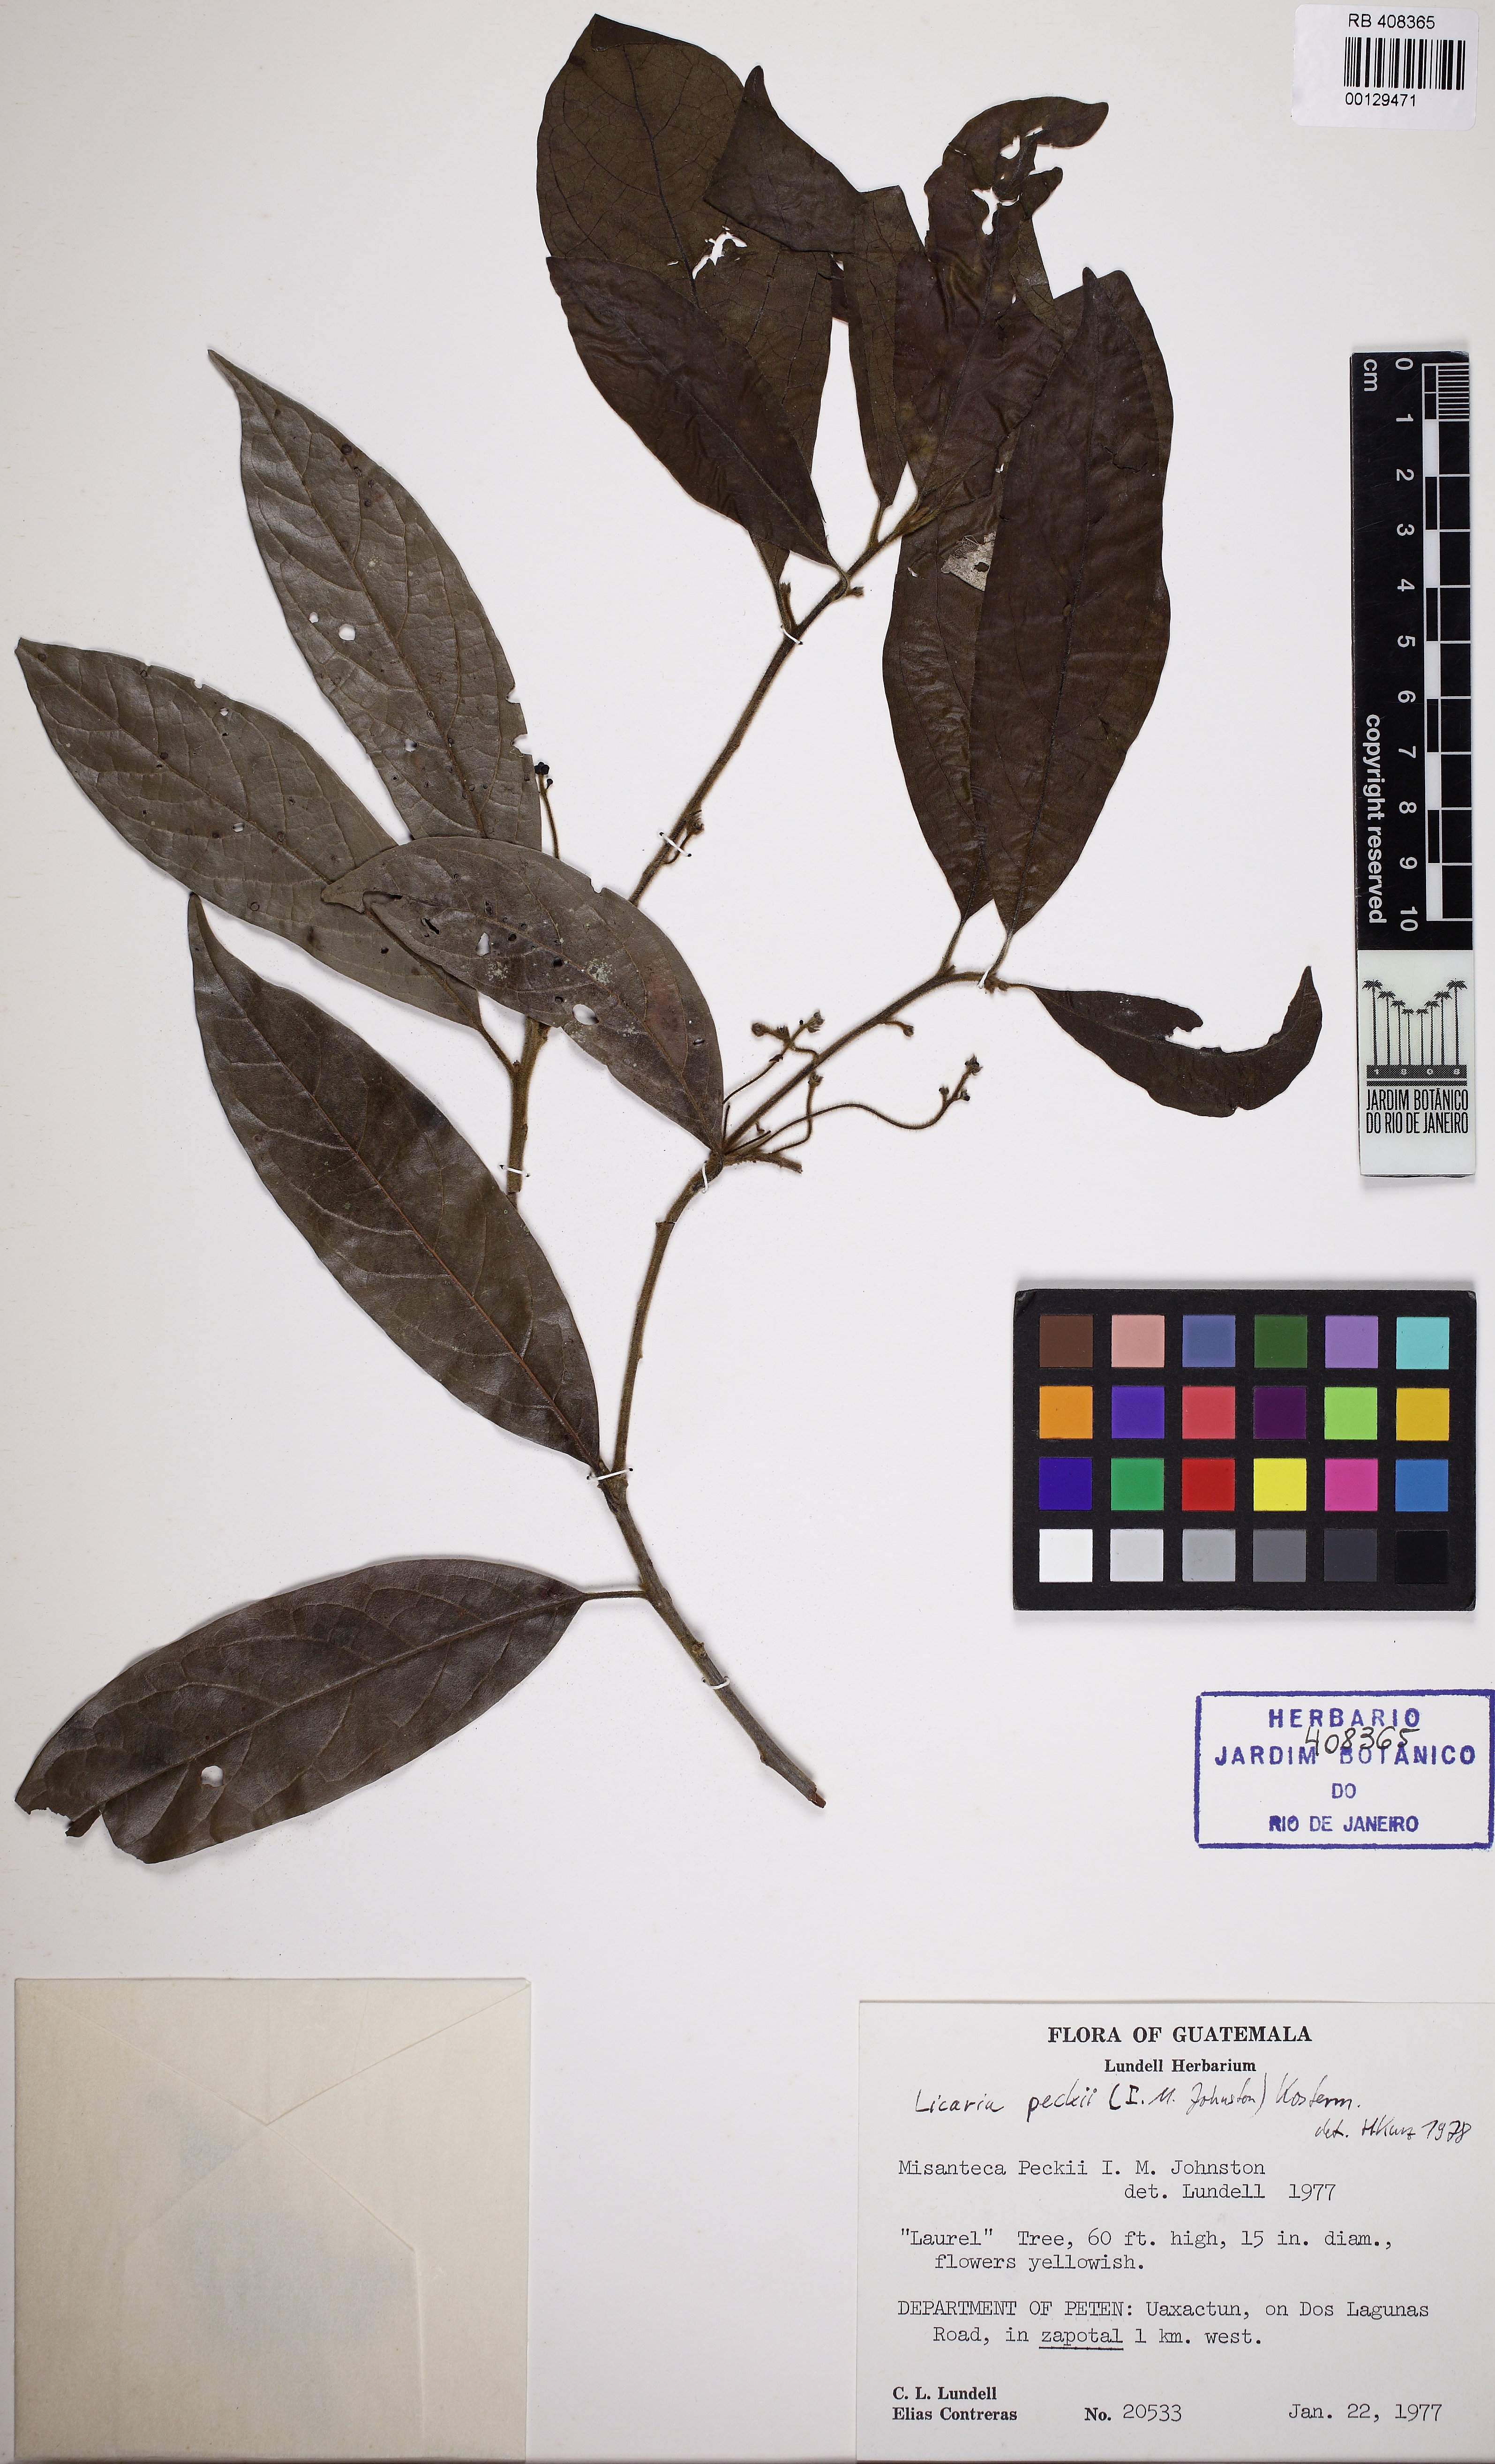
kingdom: Plantae
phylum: Tracheophyta
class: Magnoliopsida
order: Laurales
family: Lauraceae
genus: Licaria
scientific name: Licaria peckii
